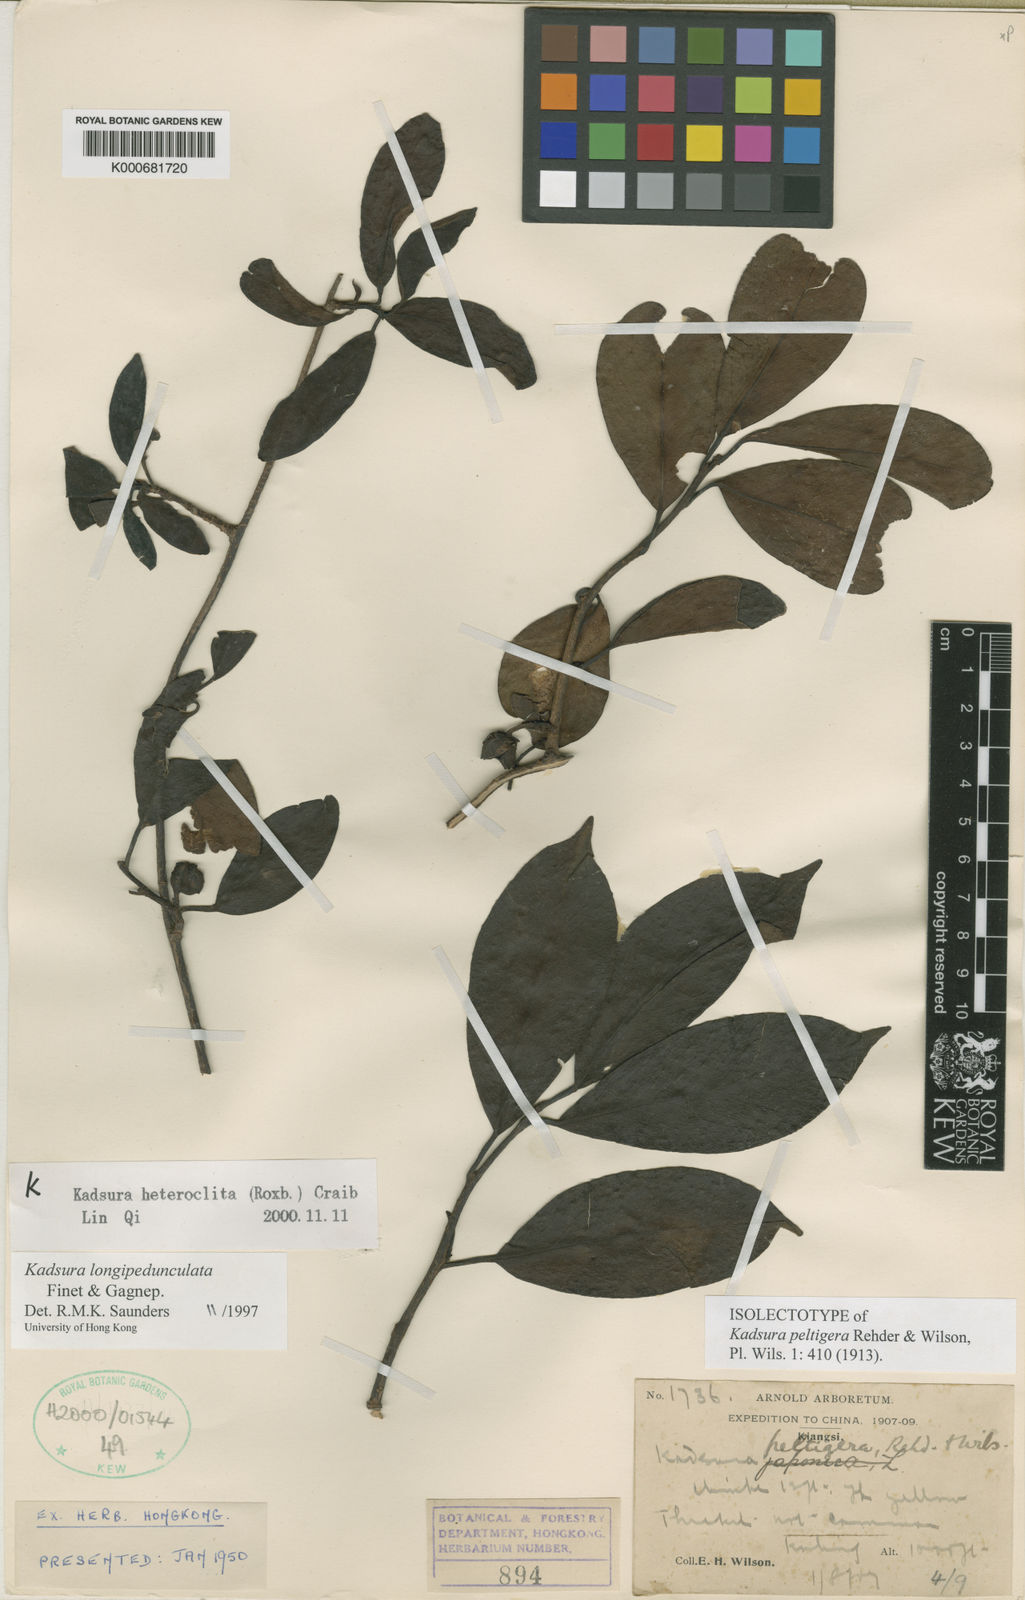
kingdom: Plantae
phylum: Tracheophyta
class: Magnoliopsida
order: Austrobaileyales
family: Schisandraceae
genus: Kadsura
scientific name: Kadsura longipedunculata
